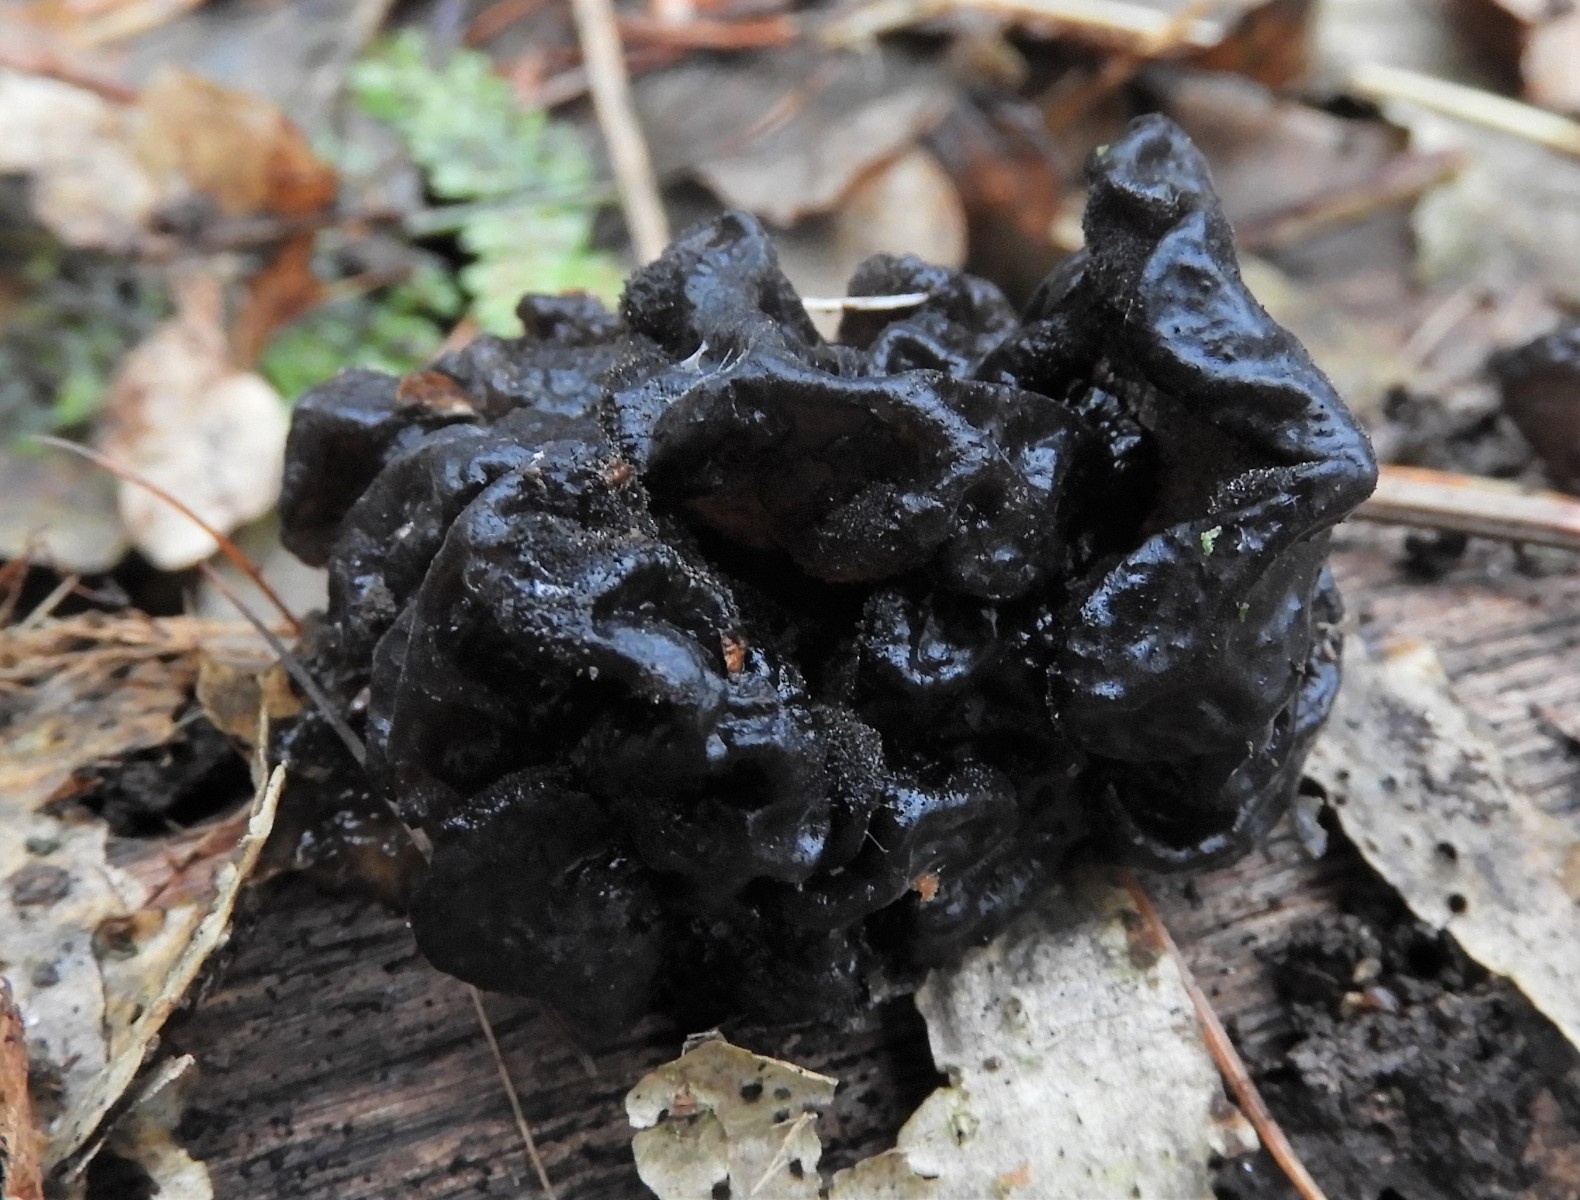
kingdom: Fungi
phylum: Basidiomycota
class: Agaricomycetes
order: Auriculariales
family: Auriculariaceae
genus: Exidia
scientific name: Exidia glandulosa
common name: ege-bævretop
